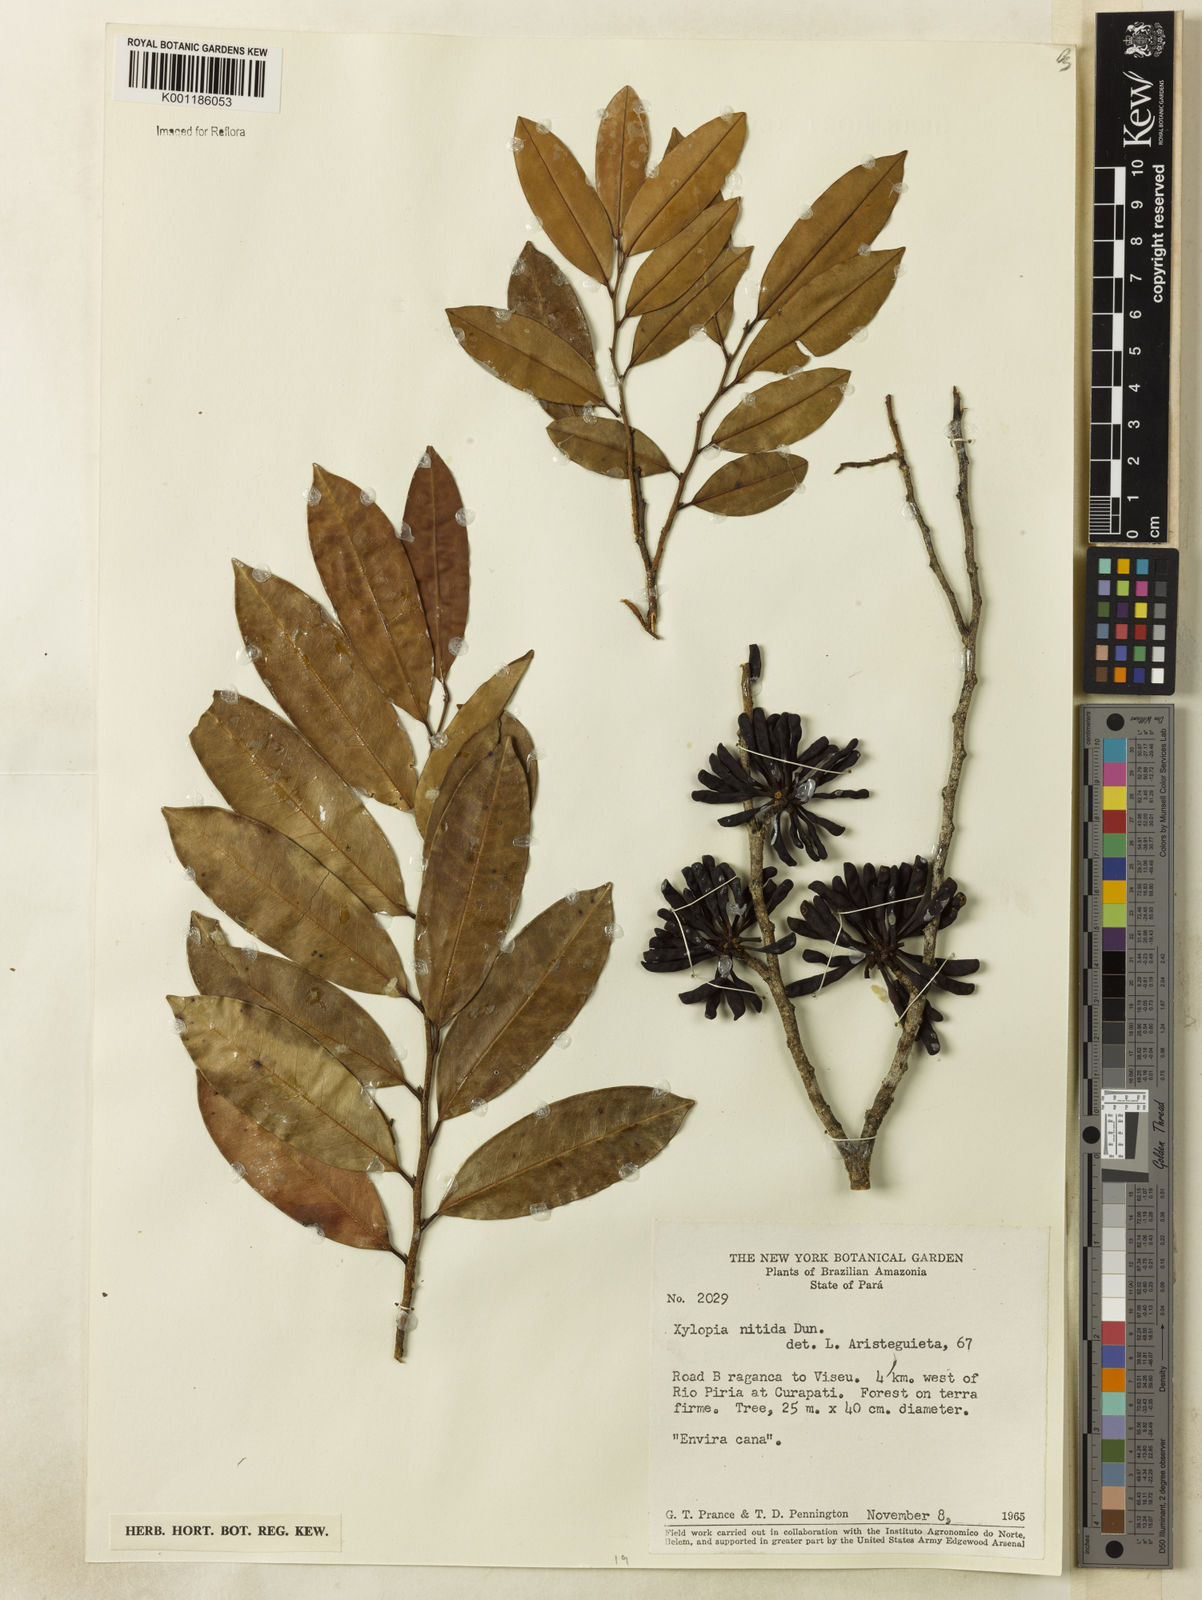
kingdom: Plantae
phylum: Tracheophyta
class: Magnoliopsida
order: Magnoliales
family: Annonaceae
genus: Xylopia
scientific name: Xylopia nitida
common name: White kuyama
